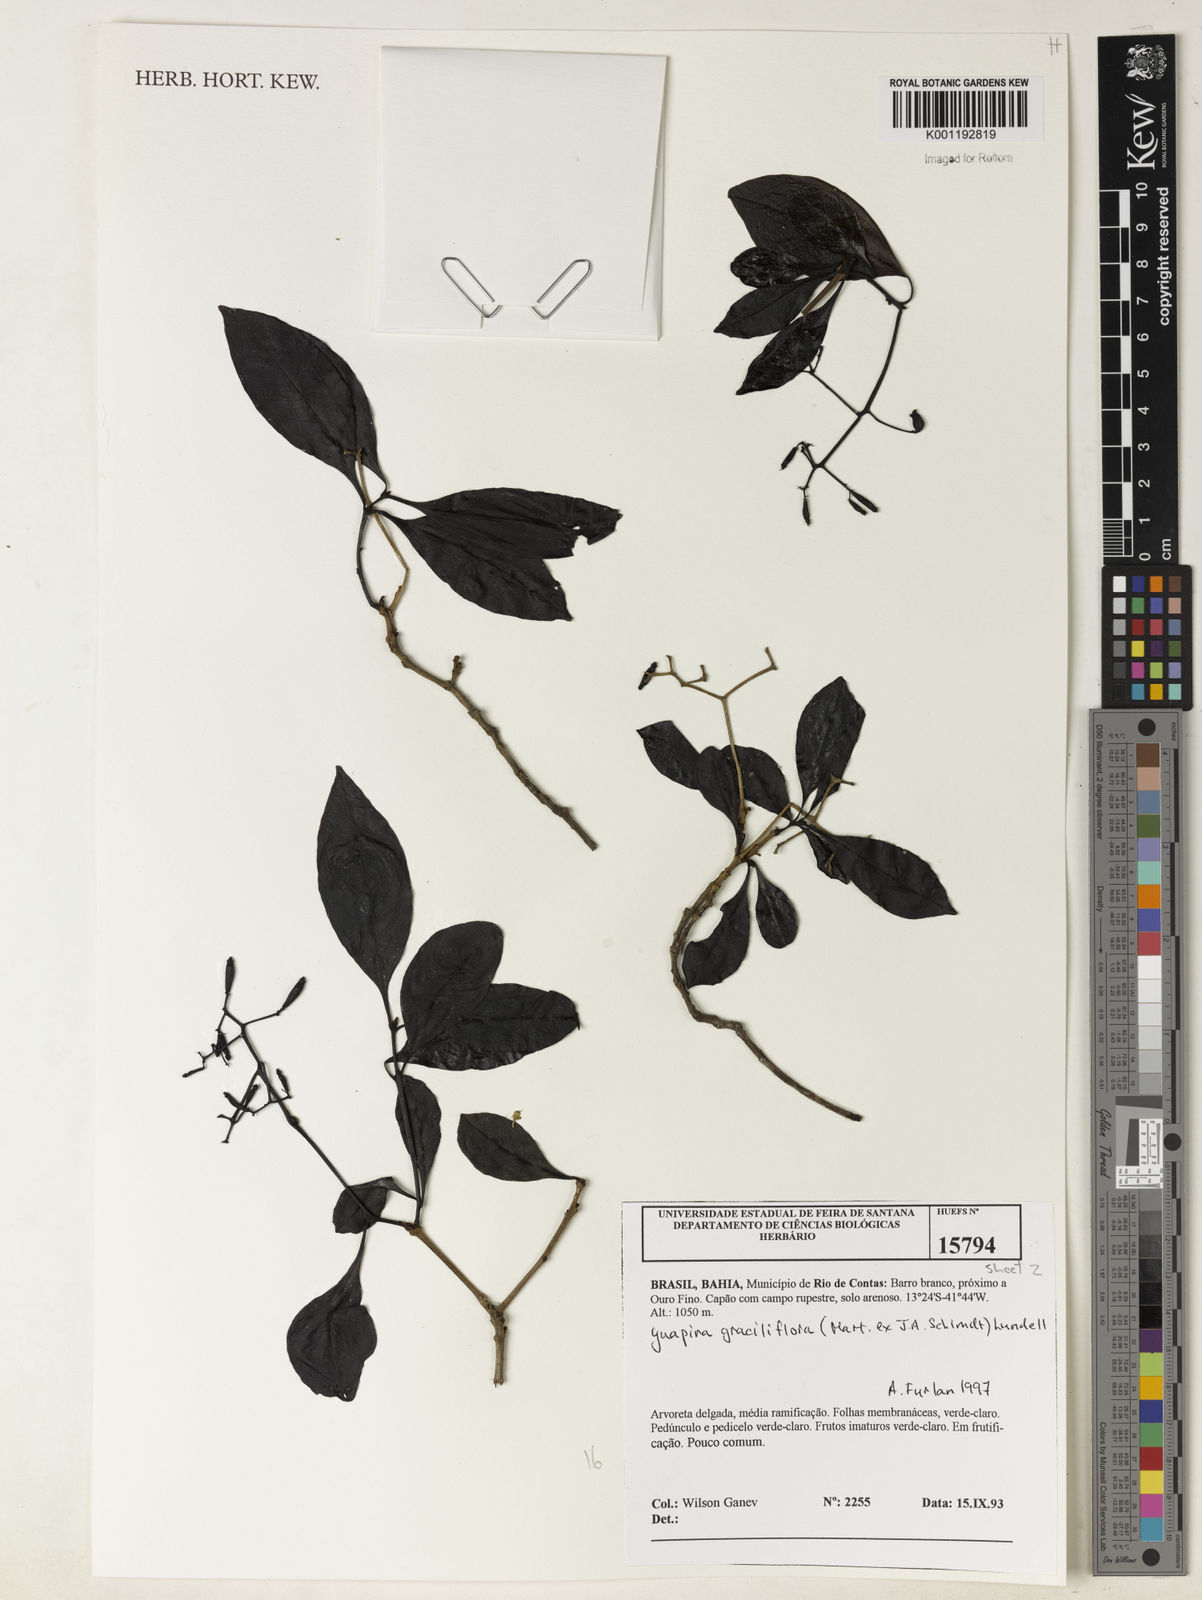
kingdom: Plantae
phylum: Tracheophyta
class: Magnoliopsida
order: Caryophyllales
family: Nyctaginaceae
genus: Guapira
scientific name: Guapira graciliflora
